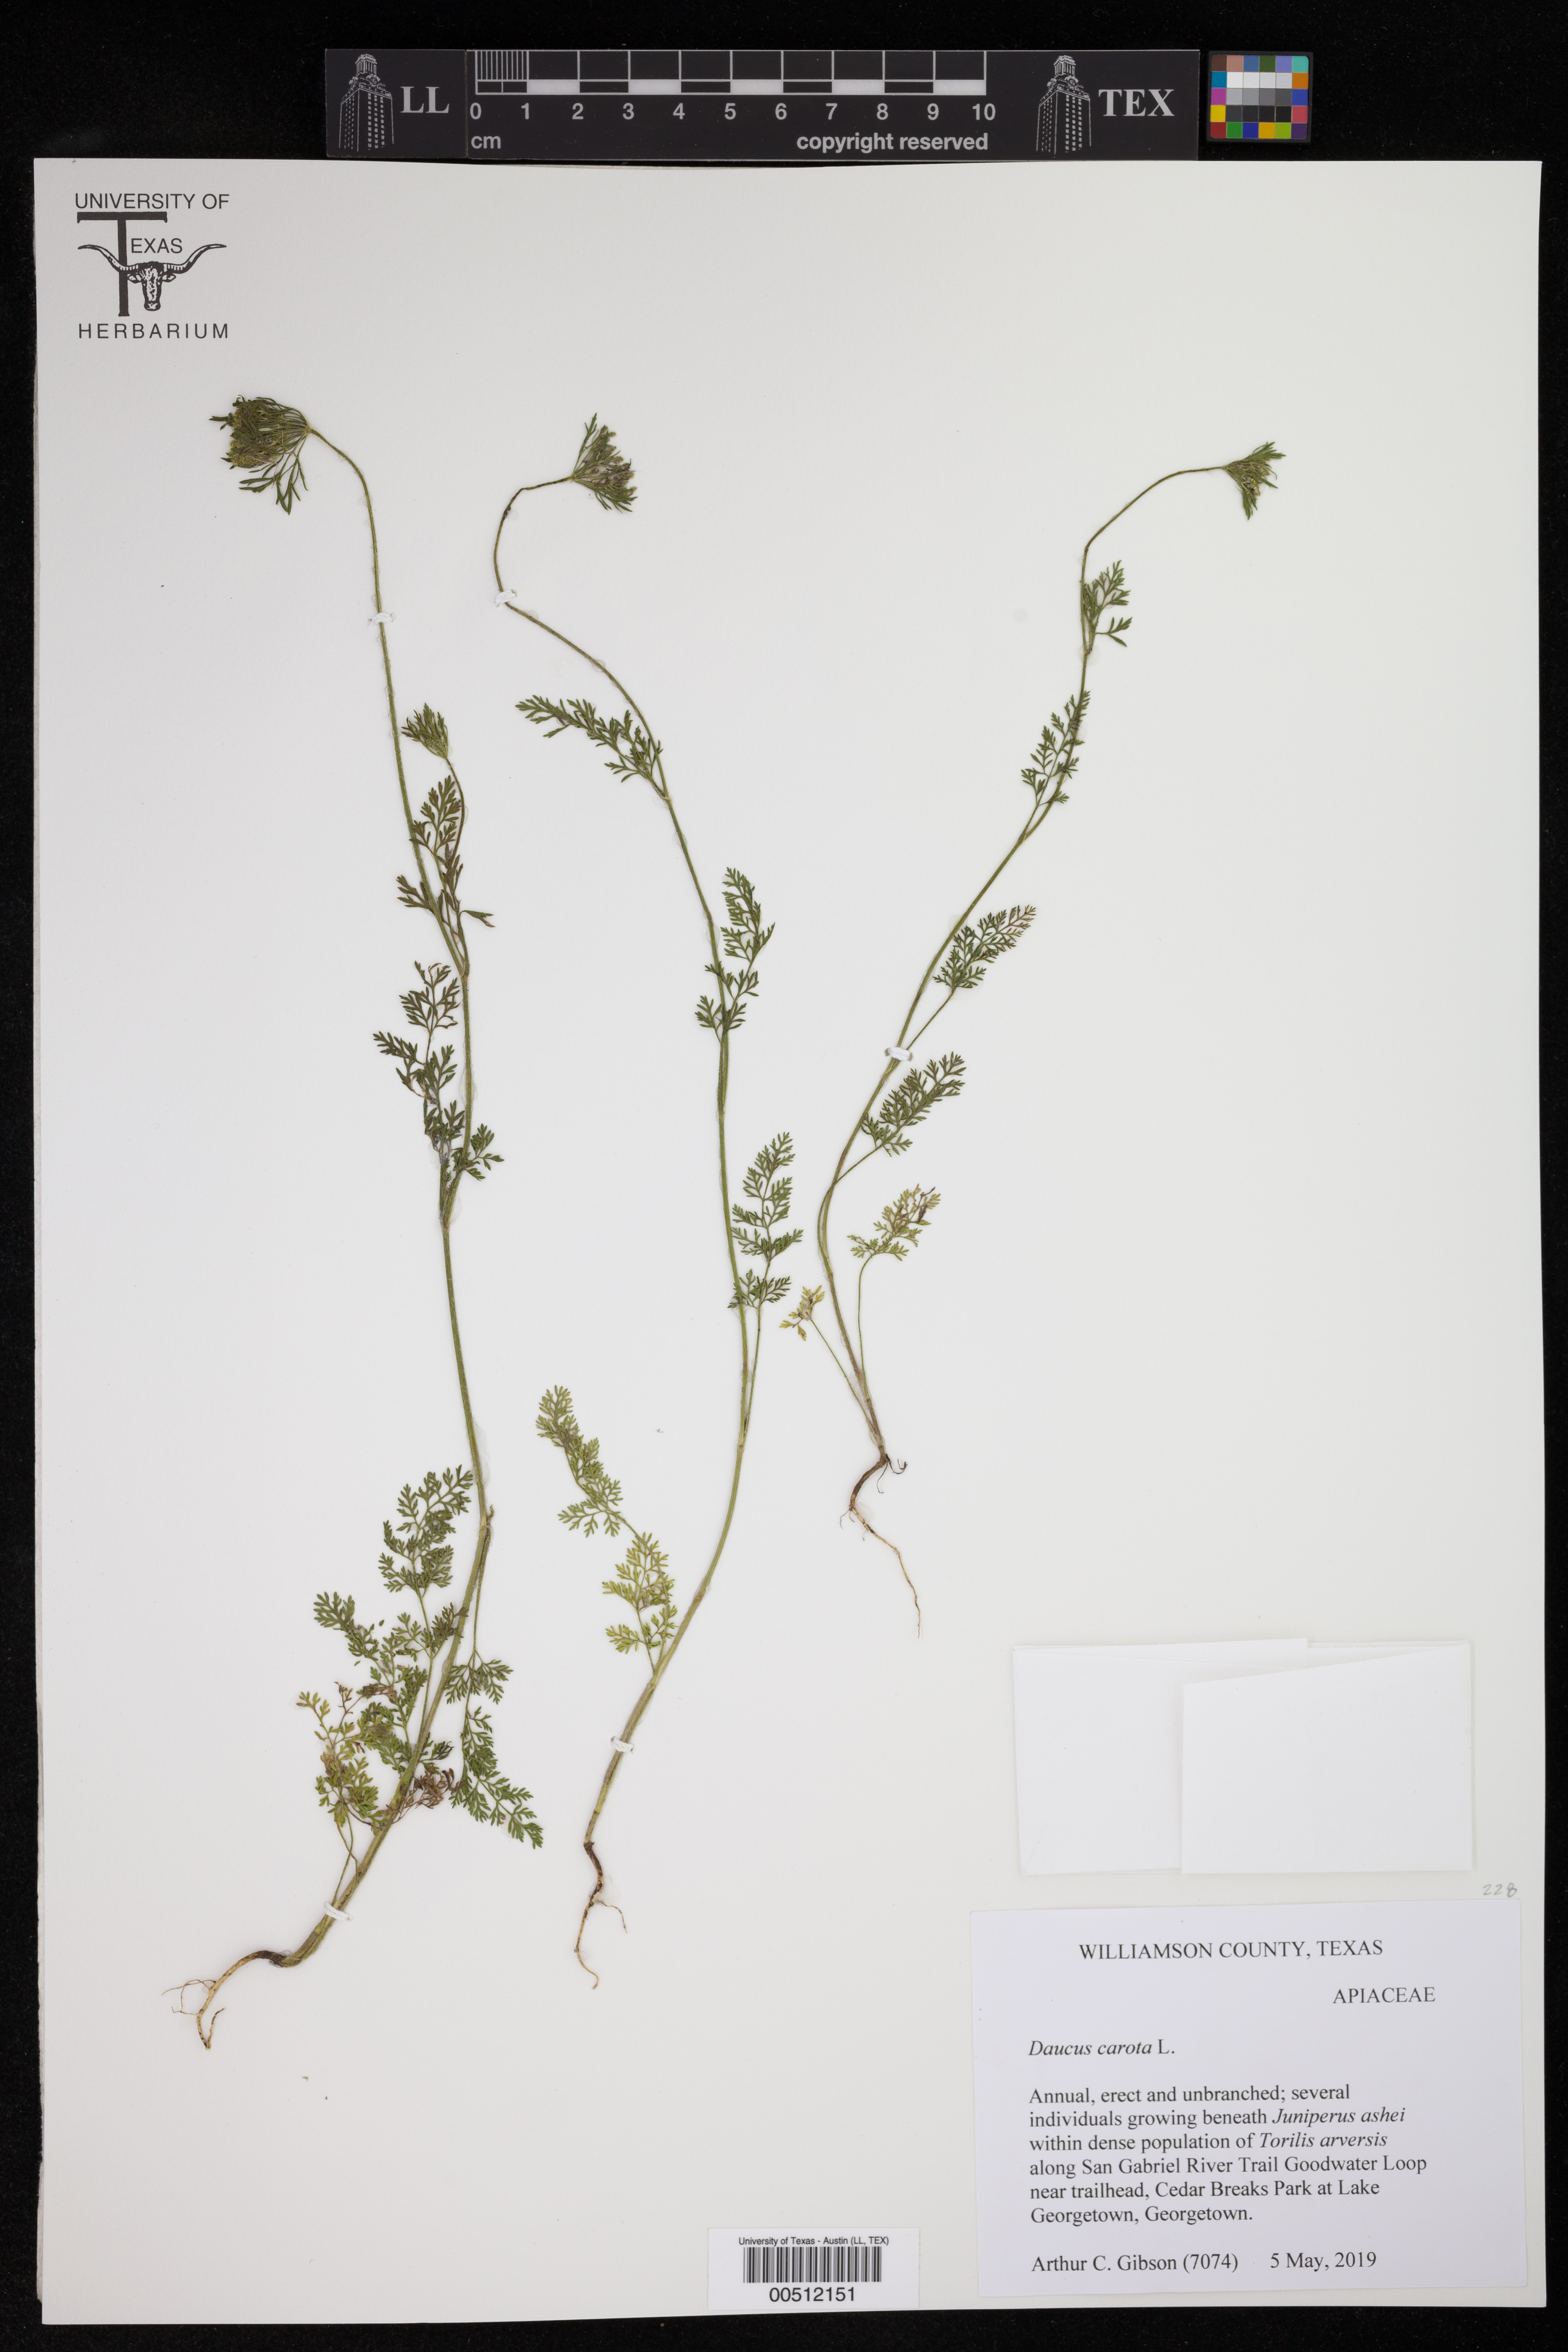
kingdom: Plantae
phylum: Tracheophyta
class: Magnoliopsida
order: Apiales
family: Apiaceae
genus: Daucus
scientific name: Daucus carota
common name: Wild carrot
